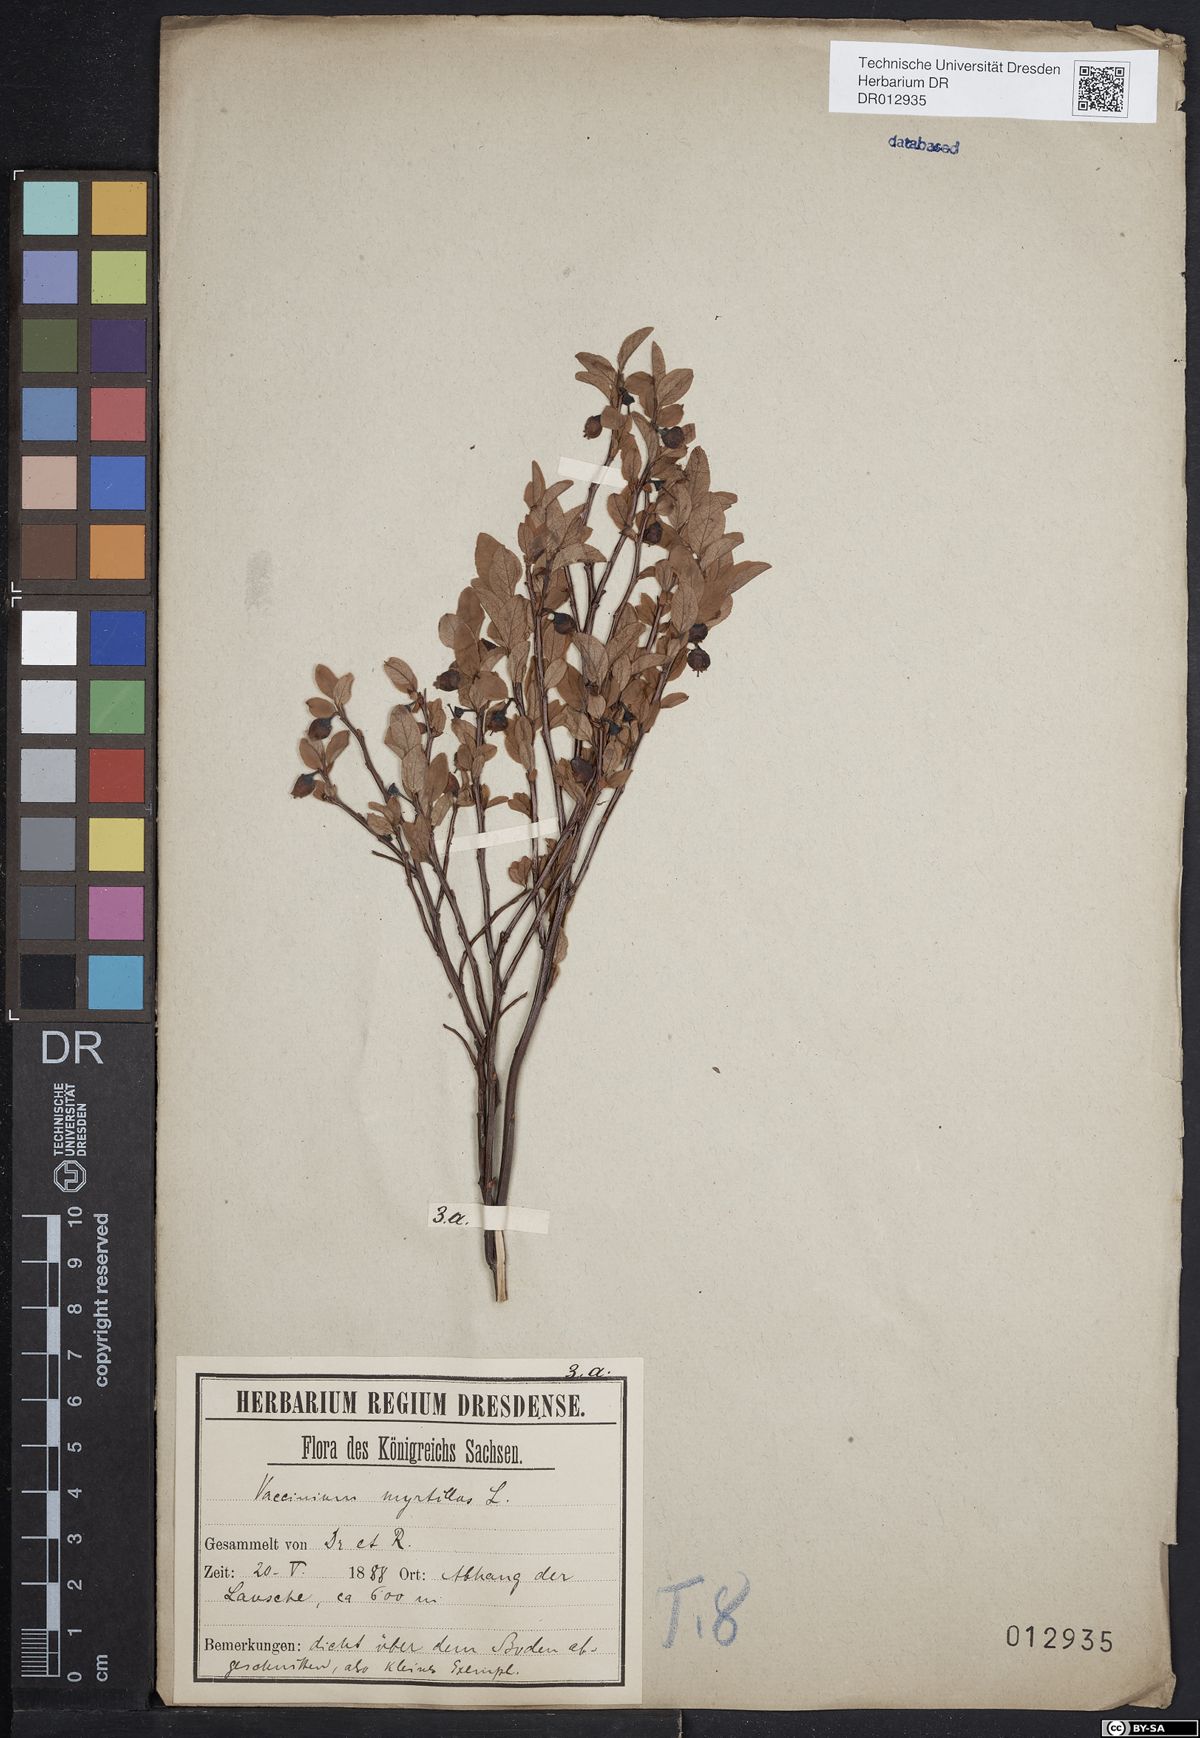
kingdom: Plantae
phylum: Tracheophyta
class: Magnoliopsida
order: Ericales
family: Ericaceae
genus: Vaccinium
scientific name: Vaccinium myrtillus
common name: Bilberry
